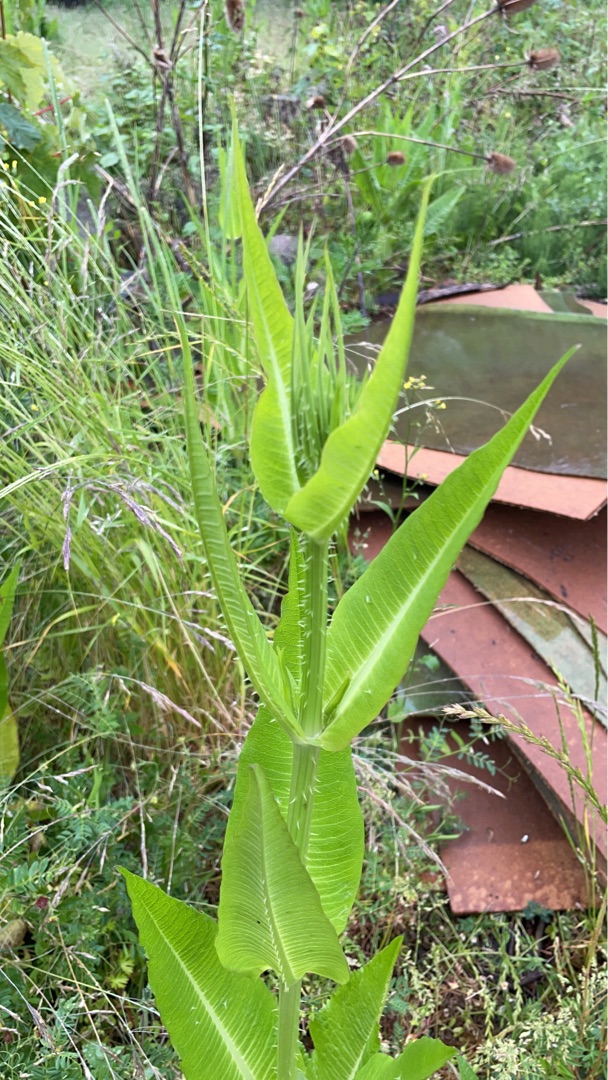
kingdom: Plantae
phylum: Tracheophyta
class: Magnoliopsida
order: Dipsacales
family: Caprifoliaceae
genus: Dipsacus
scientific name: Dipsacus fullonum
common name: Gærde-kartebolle
